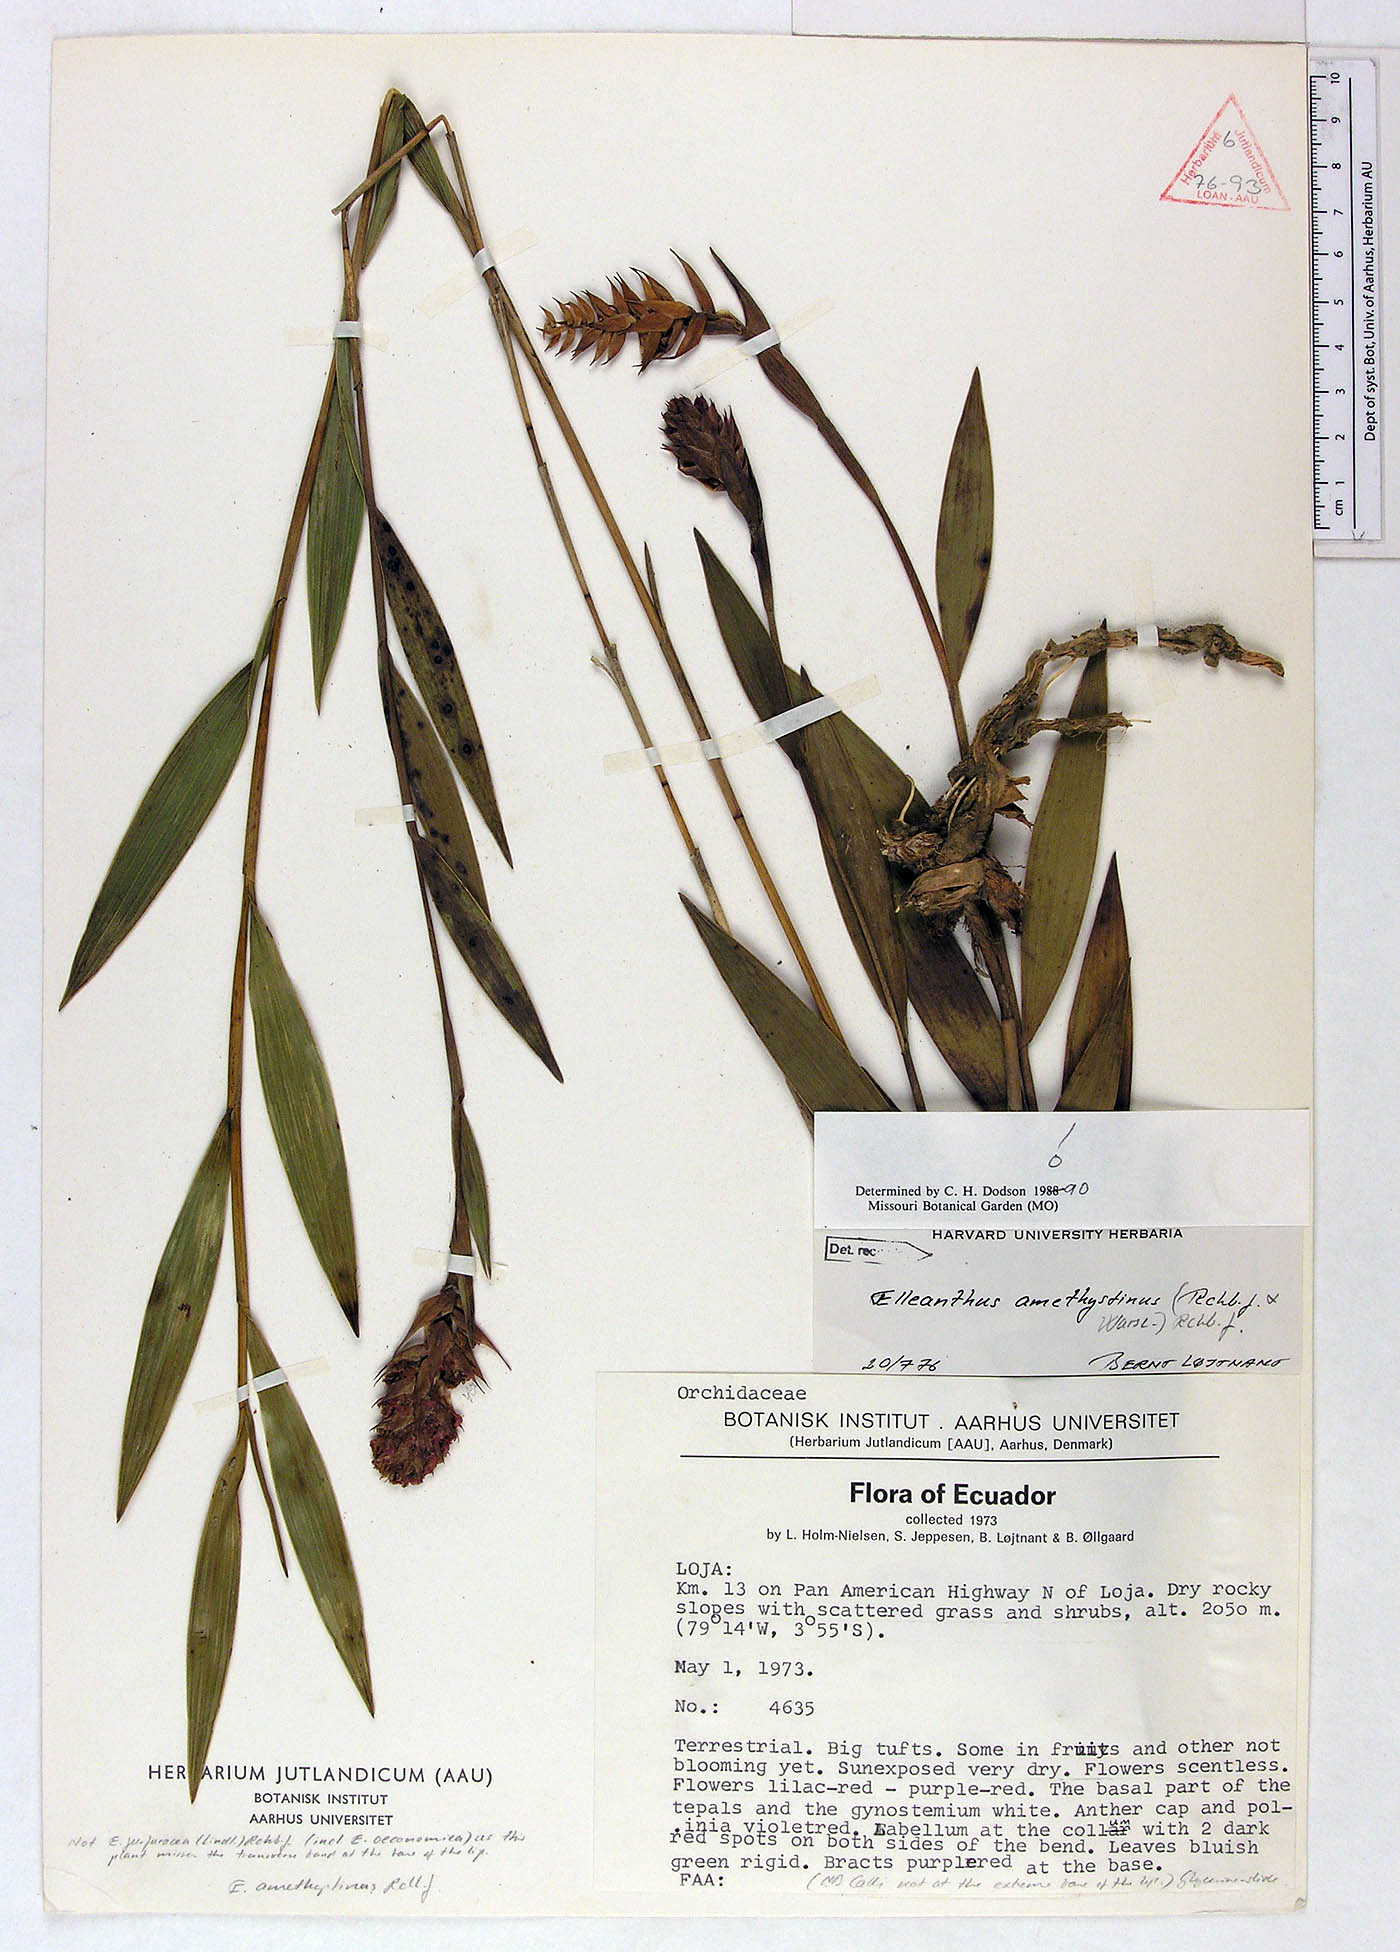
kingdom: Plantae
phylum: Tracheophyta
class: Liliopsida
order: Asparagales
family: Orchidaceae
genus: Elleanthus
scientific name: Elleanthus amethystinoides
